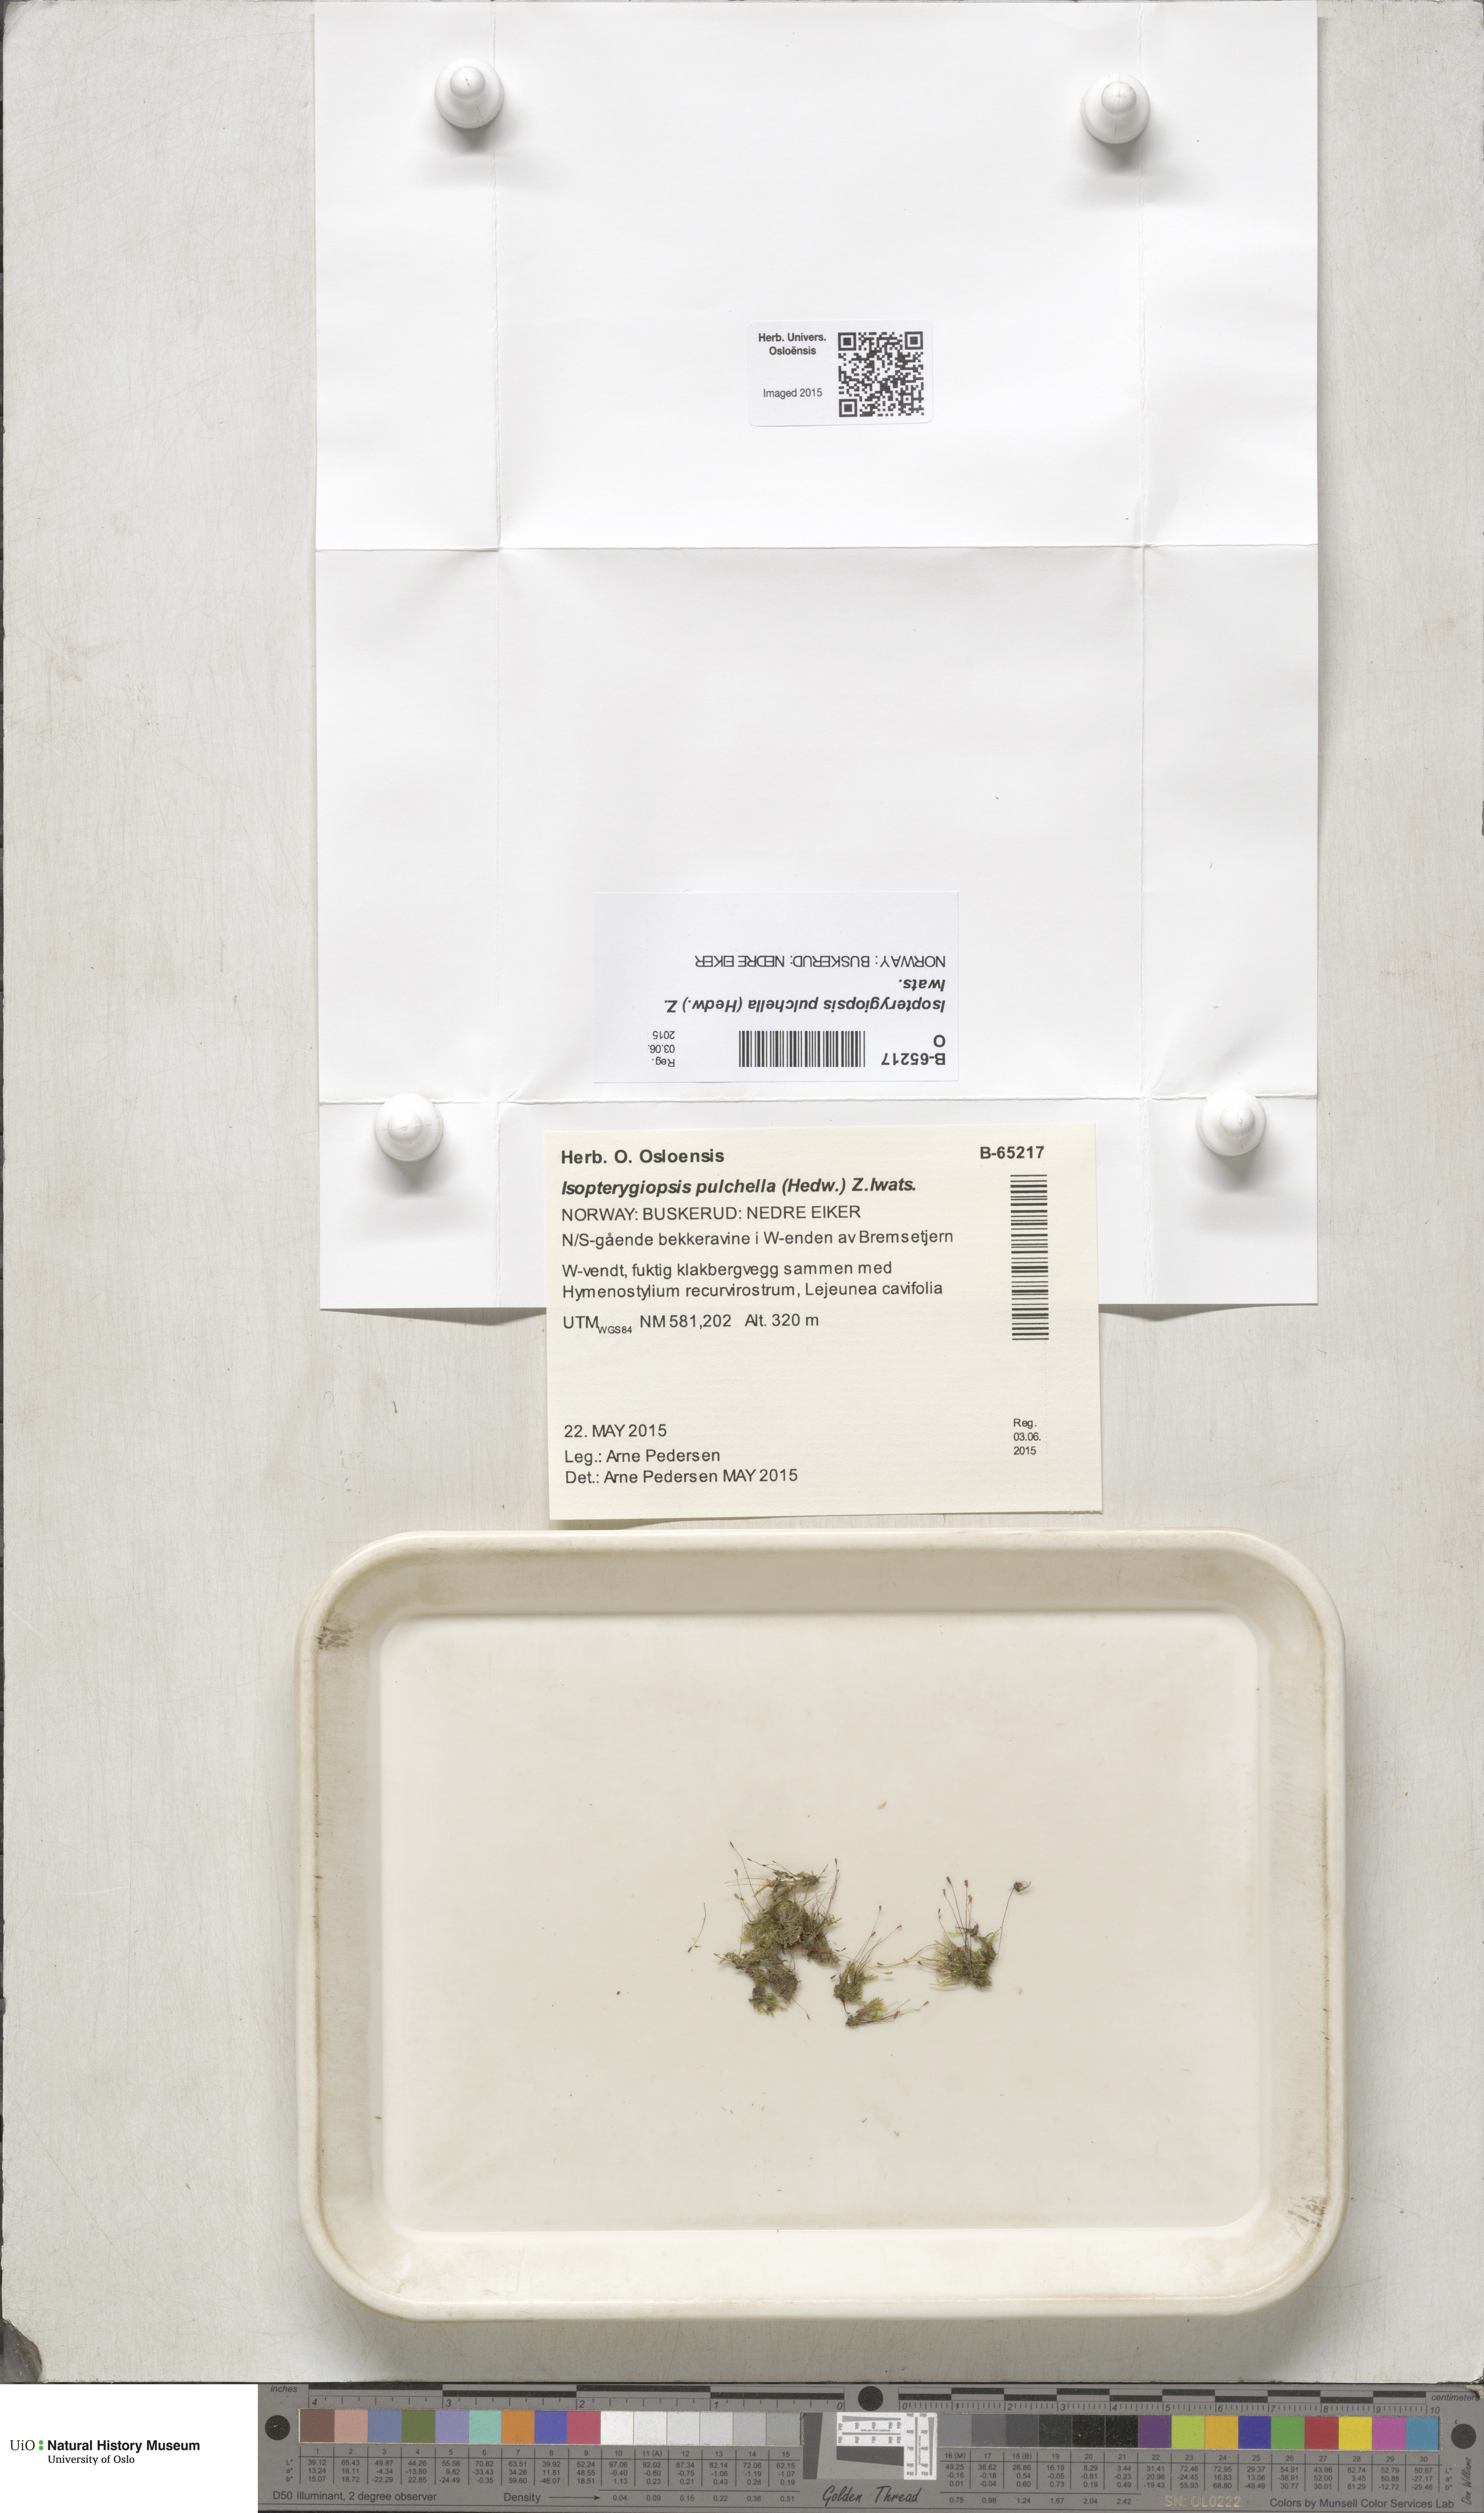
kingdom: Plantae
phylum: Bryophyta
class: Bryopsida
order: Hypnales
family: Plagiotheciaceae
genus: Isopterygiella
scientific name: Isopterygiella pulchella
